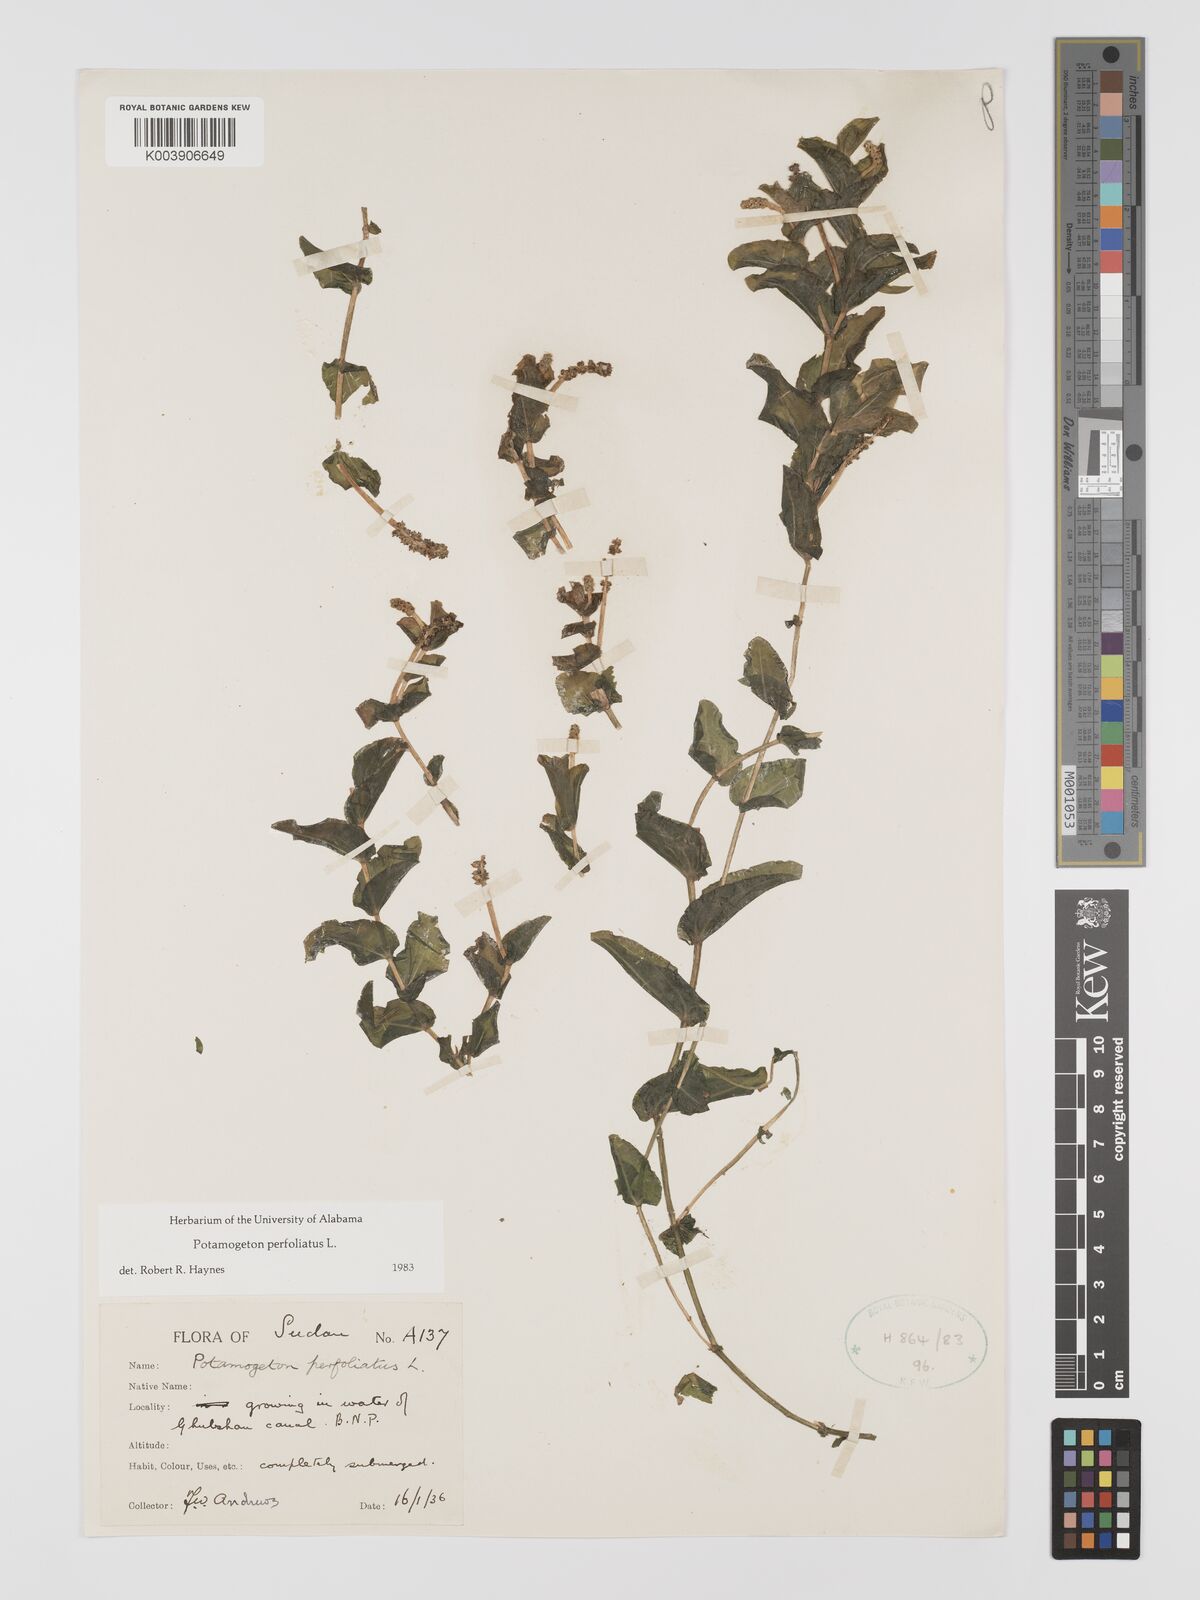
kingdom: Plantae
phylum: Tracheophyta
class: Liliopsida
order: Alismatales
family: Potamogetonaceae
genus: Potamogeton
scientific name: Potamogeton perfoliatus
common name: Perfoliate pondweed
